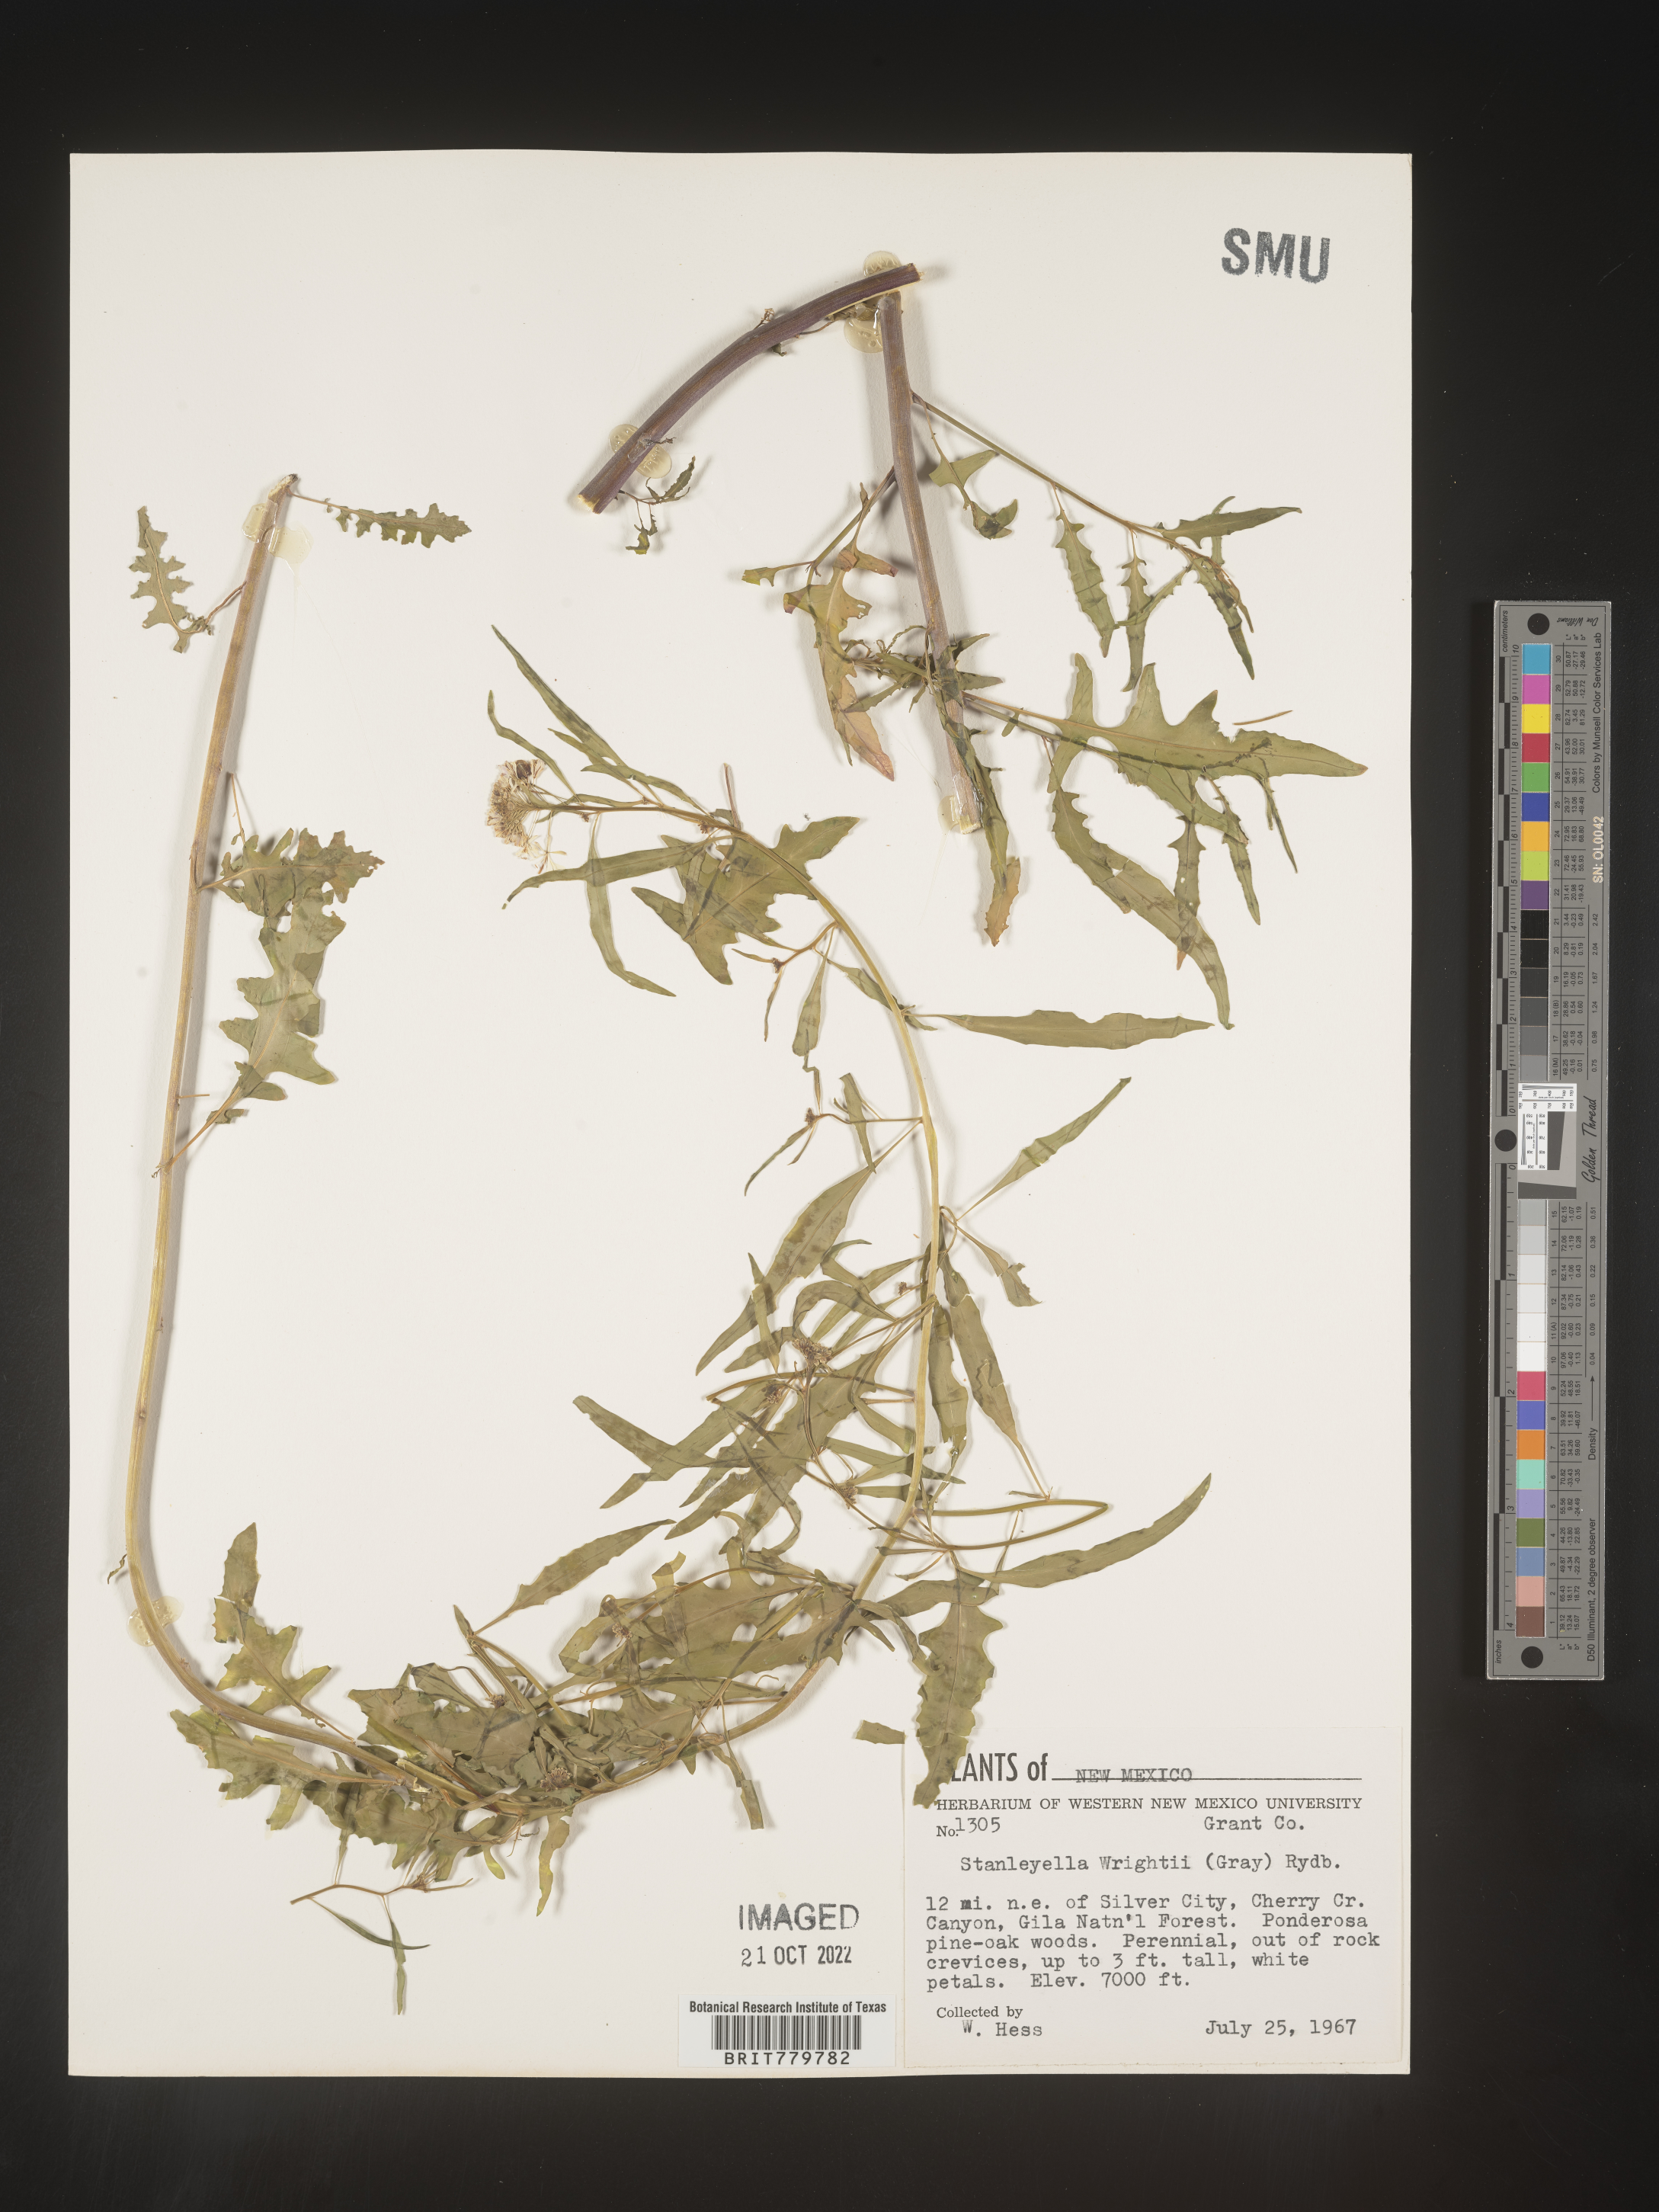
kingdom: Plantae
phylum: Tracheophyta
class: Magnoliopsida
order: Brassicales
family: Brassicaceae
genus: Thelypodium
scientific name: Thelypodium
